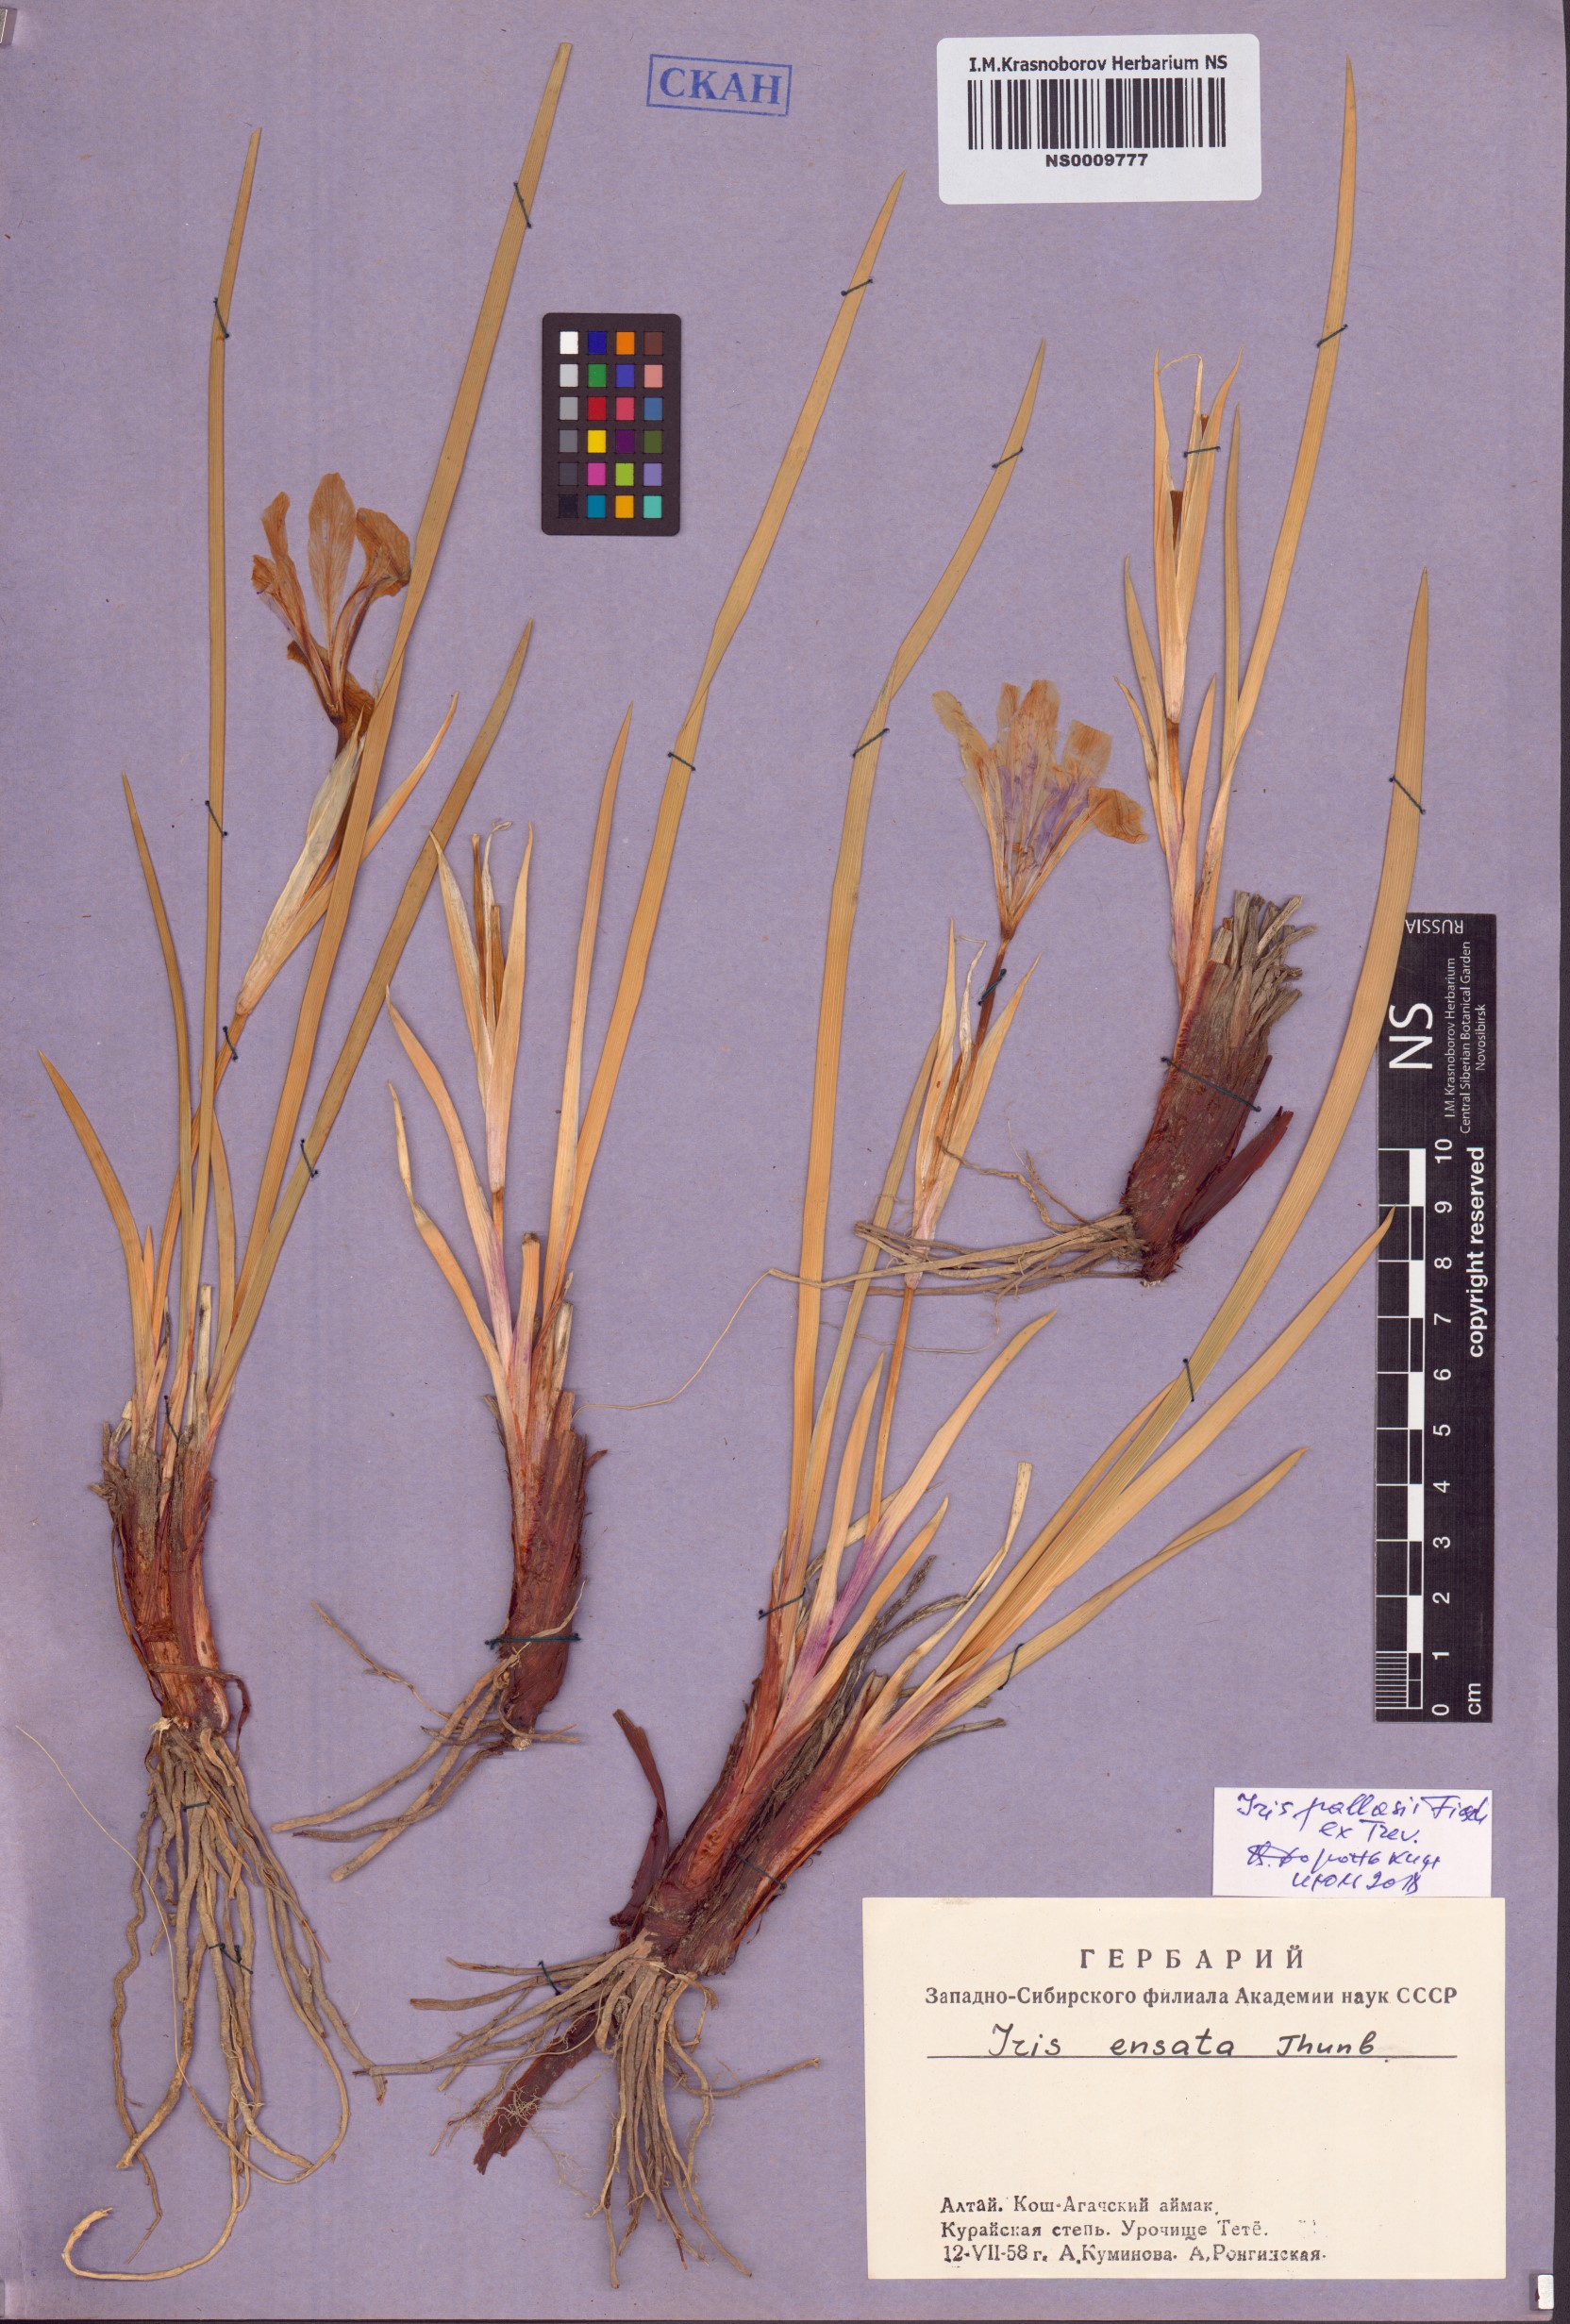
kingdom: Plantae
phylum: Tracheophyta
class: Liliopsida
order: Asparagales
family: Iridaceae
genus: Iris
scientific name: Iris lactea
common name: White-flower chinese iris
